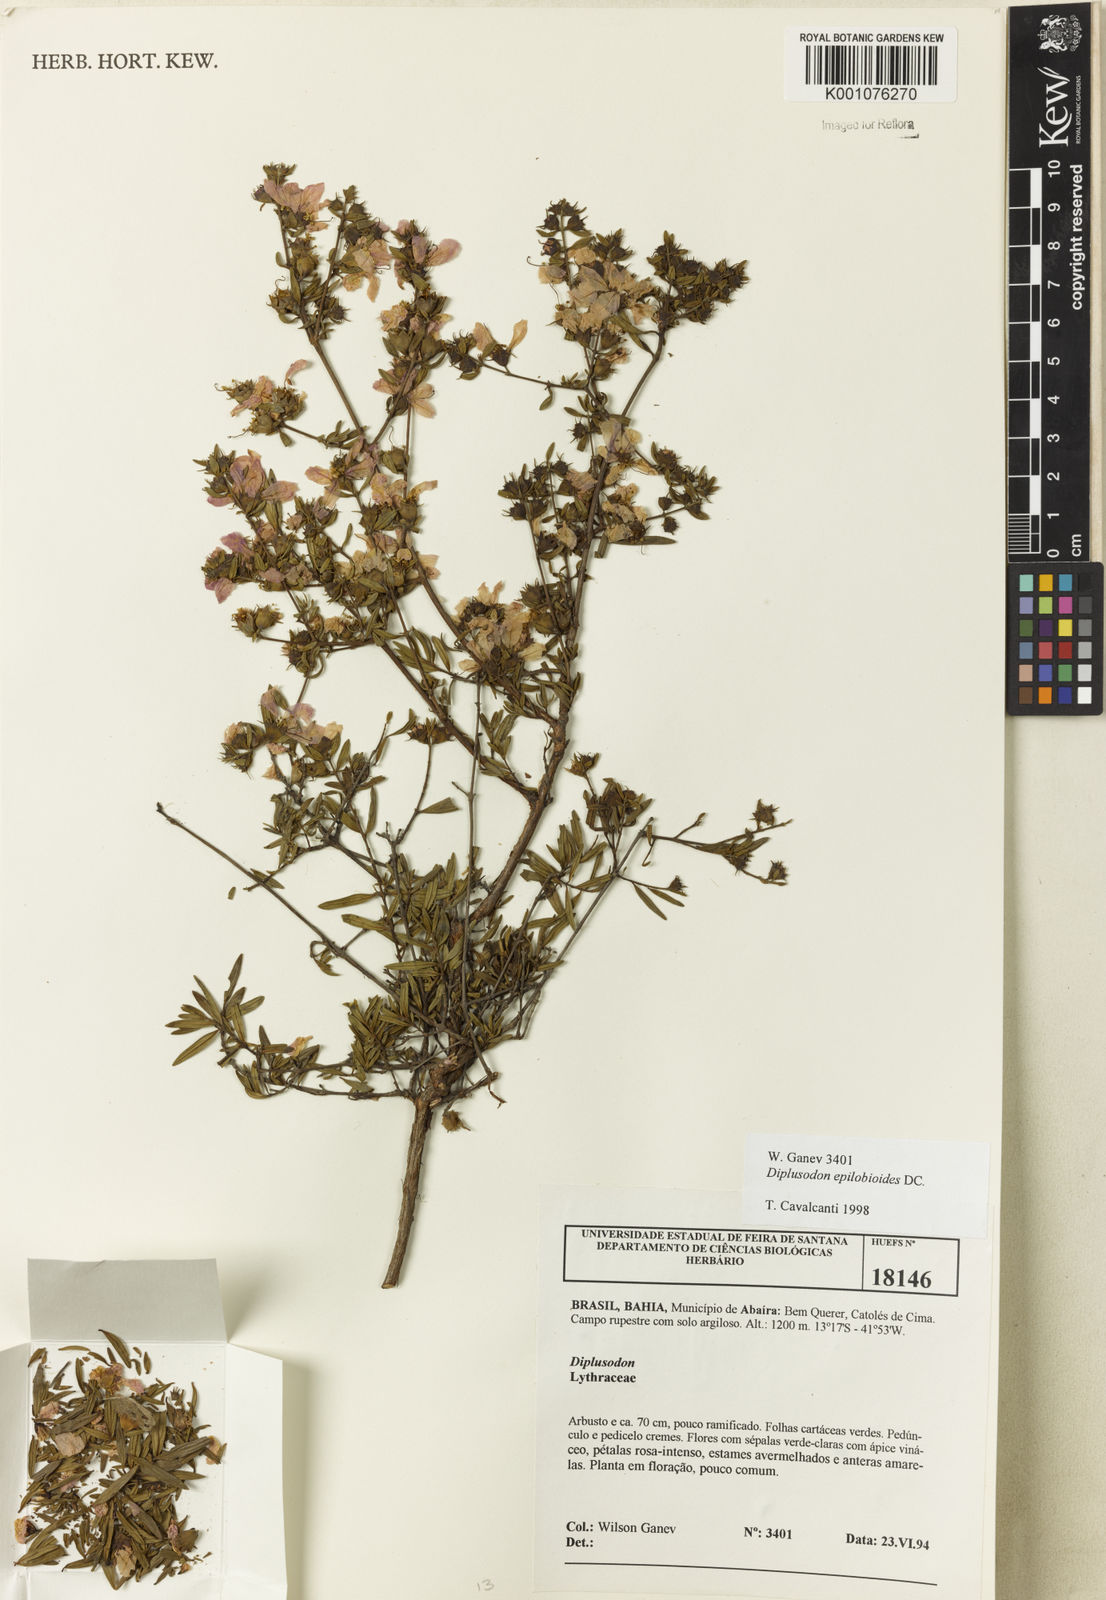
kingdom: Plantae
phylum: Tracheophyta
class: Magnoliopsida
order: Myrtales
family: Lythraceae
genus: Diplusodon
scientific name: Diplusodon epilobioides
